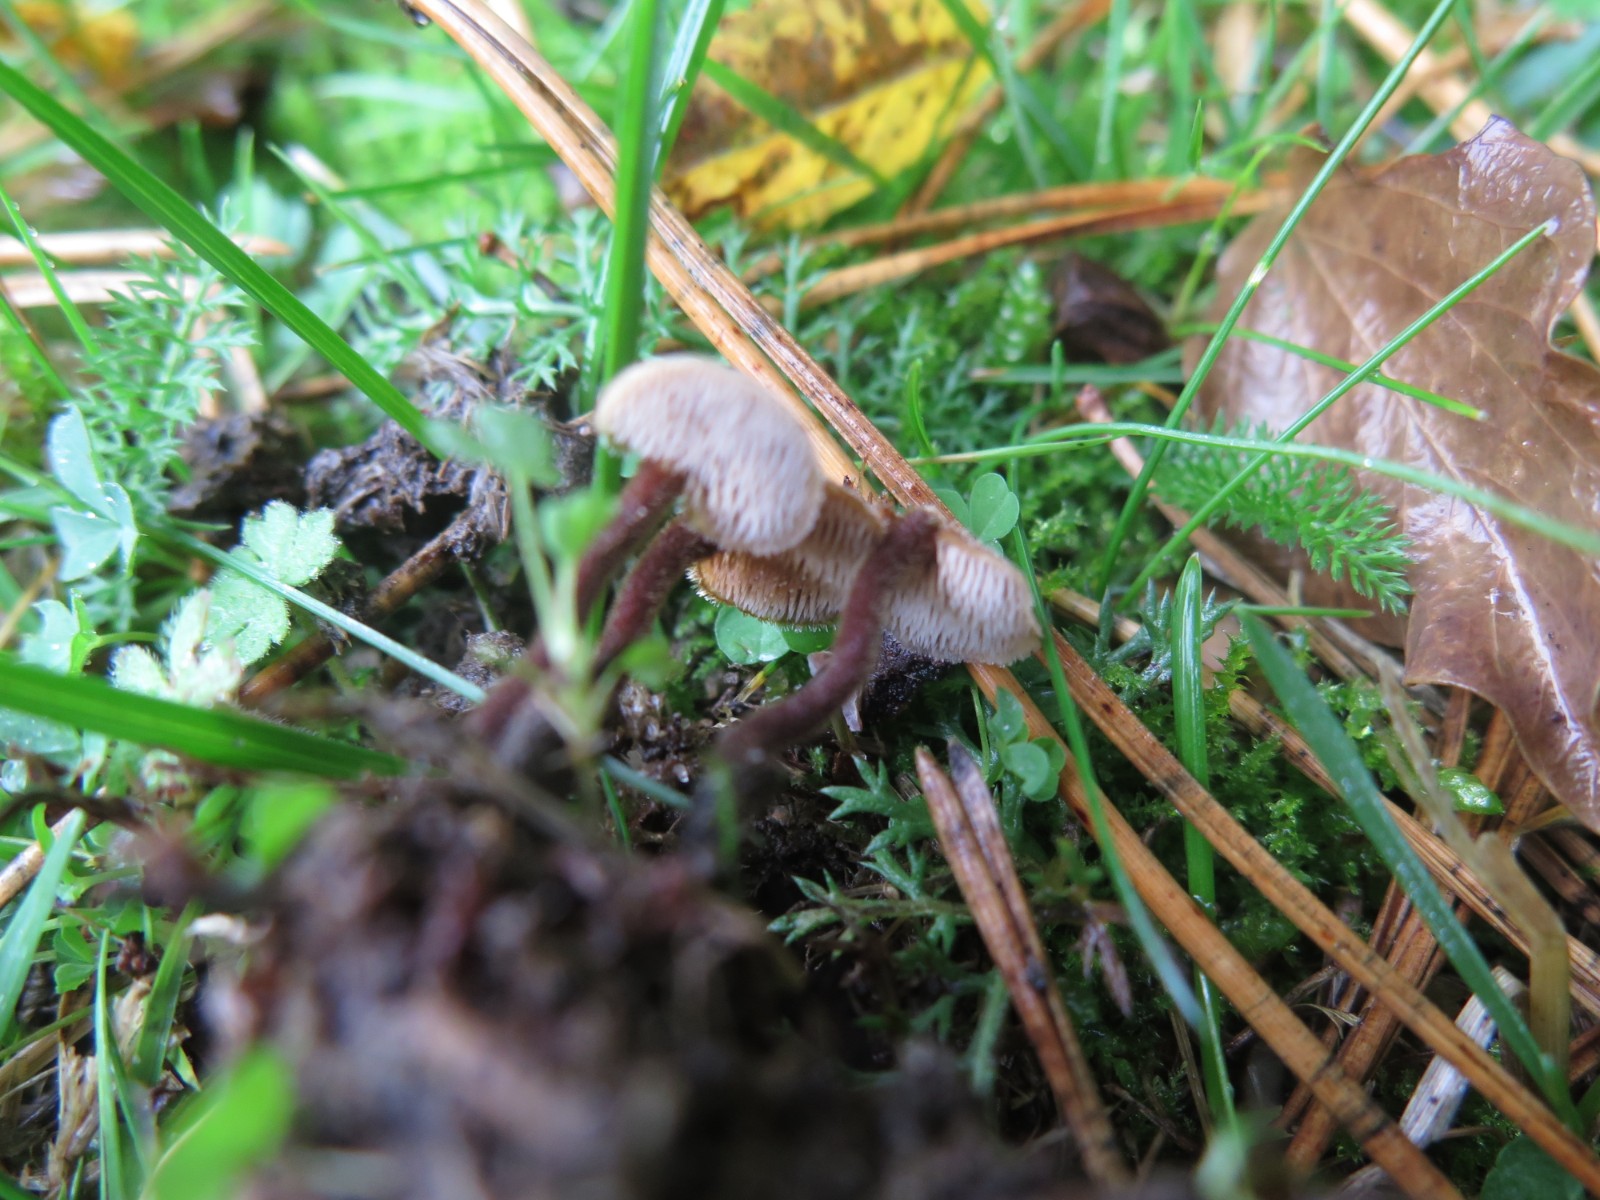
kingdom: Fungi
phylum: Basidiomycota
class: Agaricomycetes
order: Russulales
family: Auriscalpiaceae
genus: Auriscalpium
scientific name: Auriscalpium vulgare
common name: koglepigsvamp
